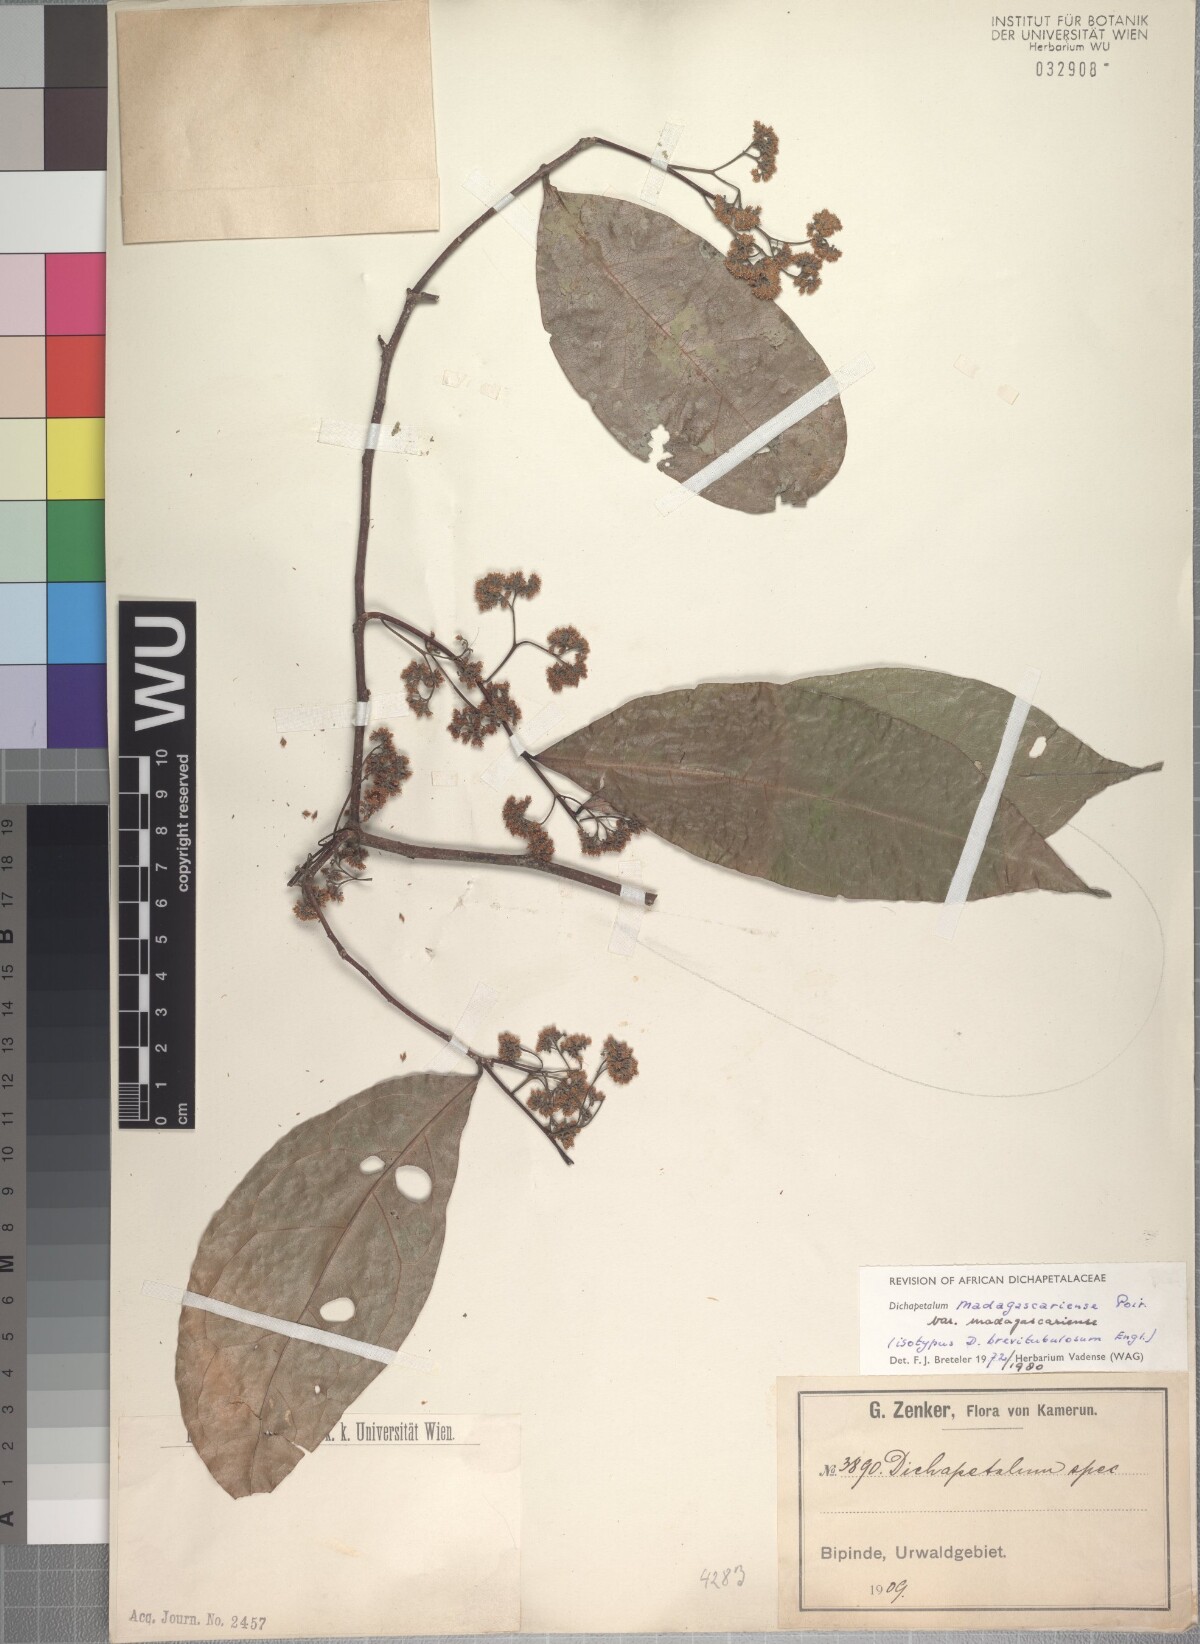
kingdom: Plantae
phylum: Tracheophyta
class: Magnoliopsida
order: Malpighiales
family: Dichapetalaceae
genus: Dichapetalum
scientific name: Dichapetalum madagascariense
